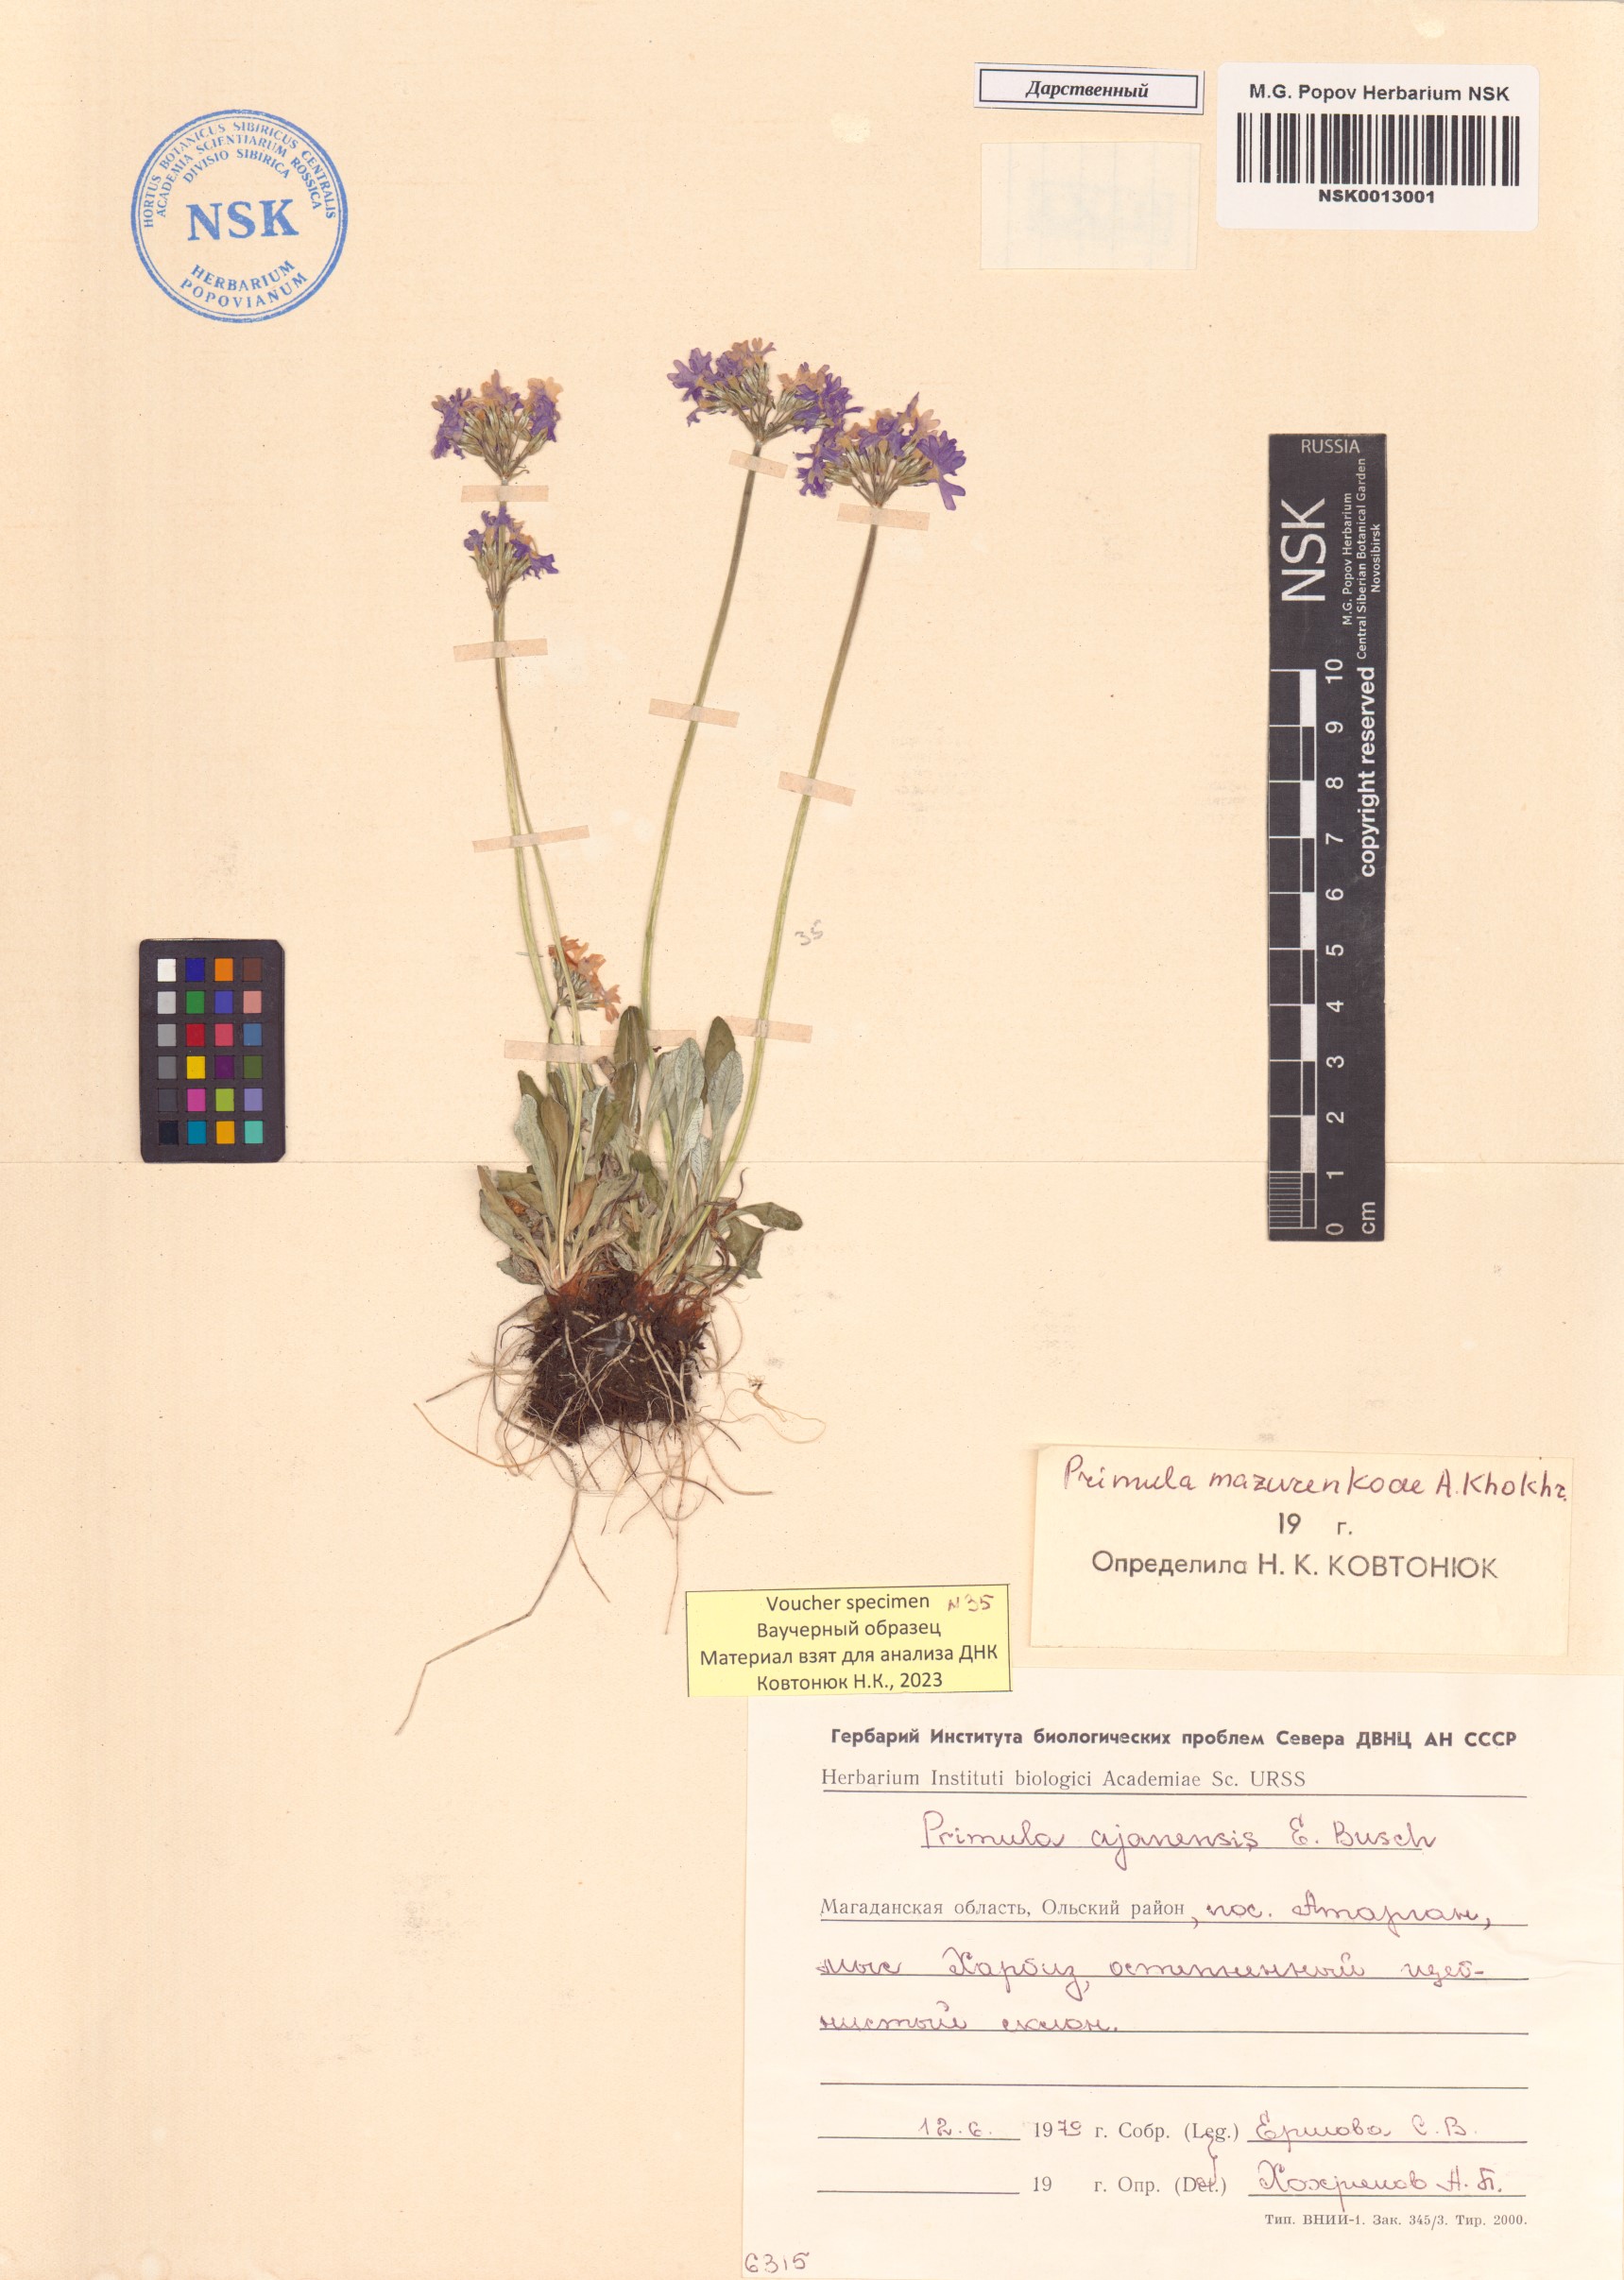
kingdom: Plantae
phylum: Tracheophyta
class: Magnoliopsida
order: Ericales
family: Primulaceae
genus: Primula
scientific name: Primula mazurenkoae
